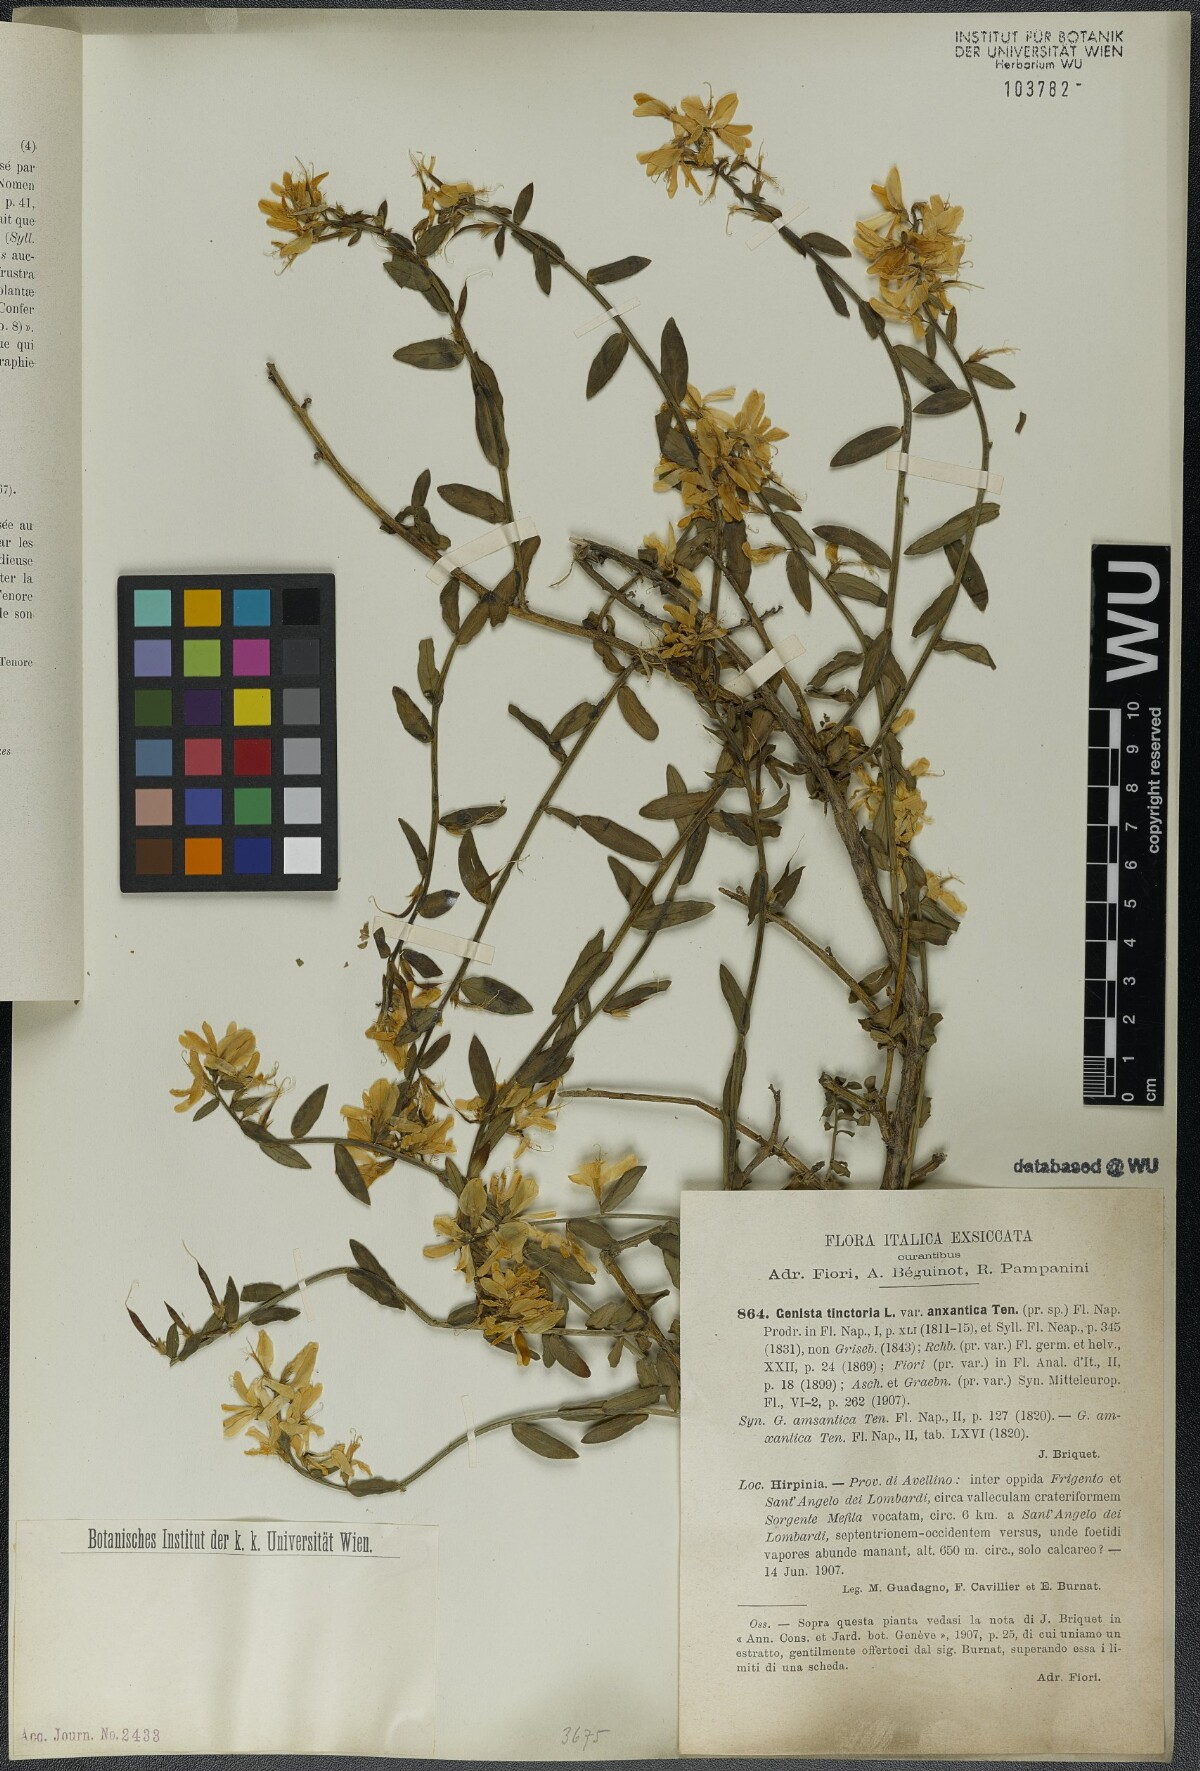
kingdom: Plantae
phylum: Tracheophyta
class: Magnoliopsida
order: Fabales
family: Fabaceae
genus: Genista
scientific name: Genista tinctoria
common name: Dyer's greenweed
